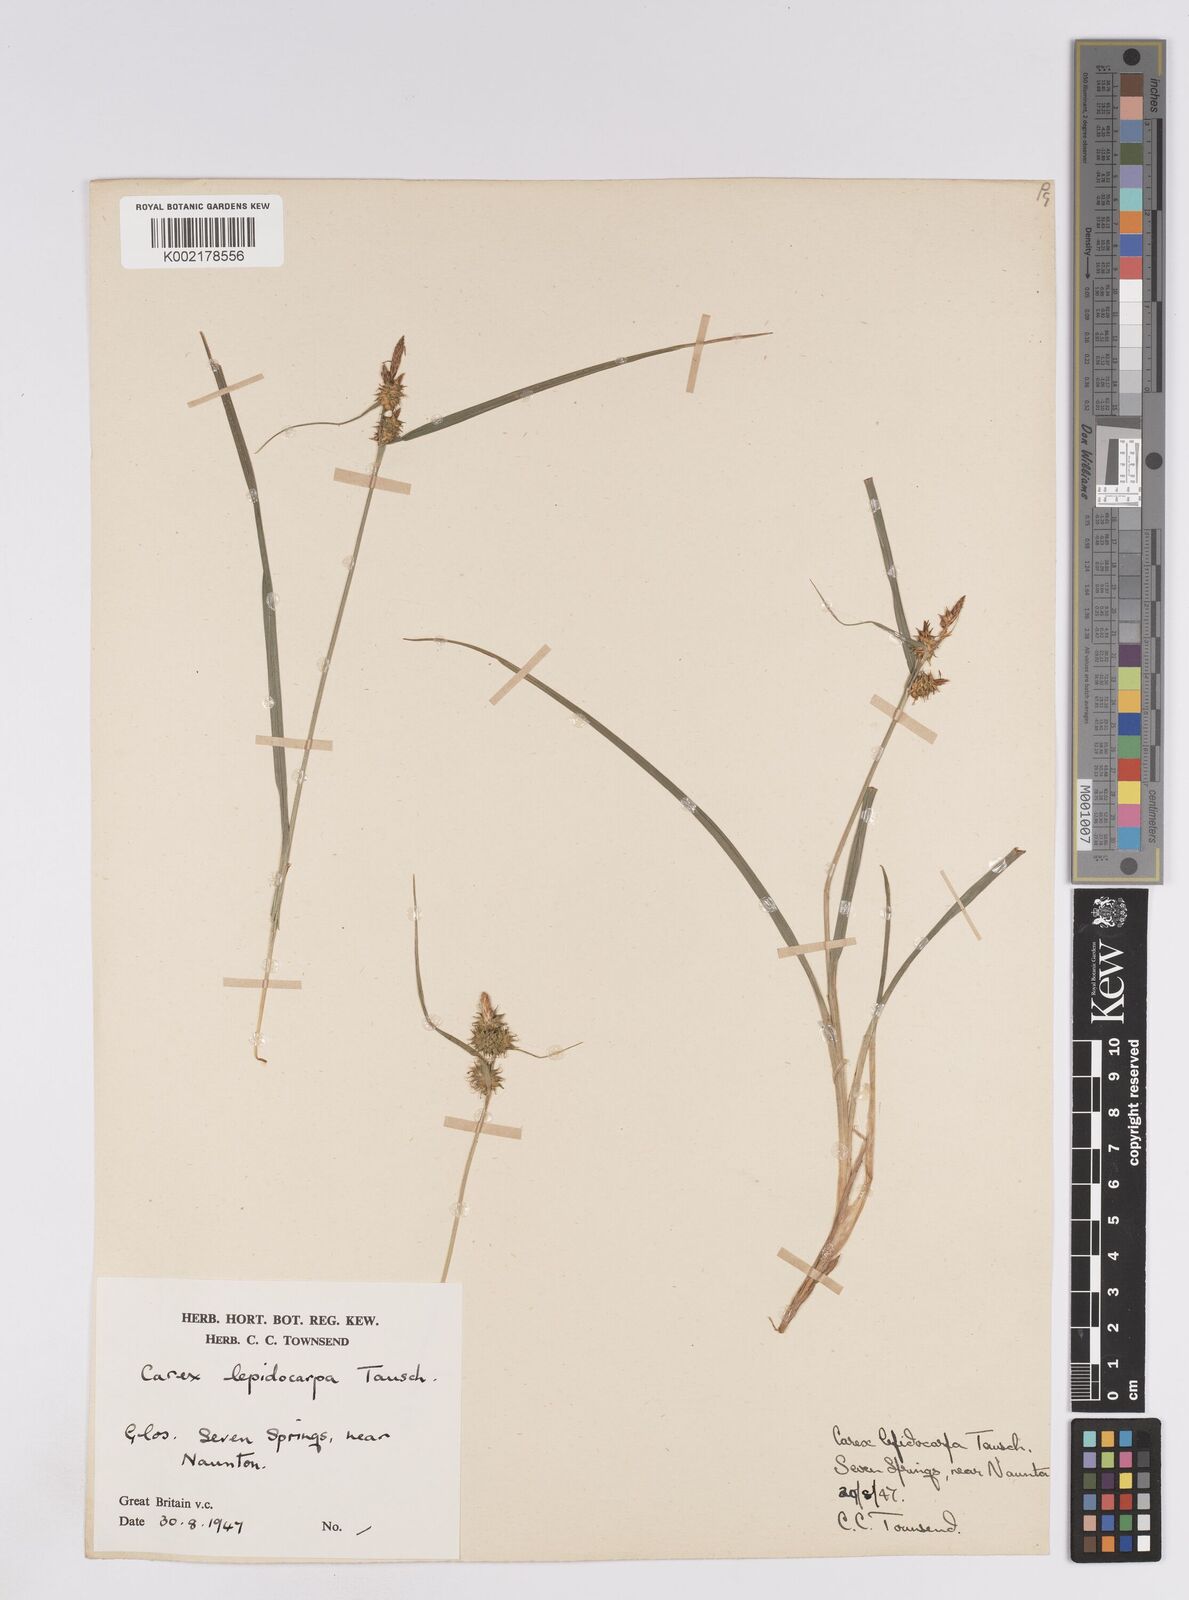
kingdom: Plantae
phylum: Tracheophyta
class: Liliopsida
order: Poales
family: Cyperaceae
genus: Carex
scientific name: Carex lepidocarpa
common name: Long-stalked yellow-sedge
